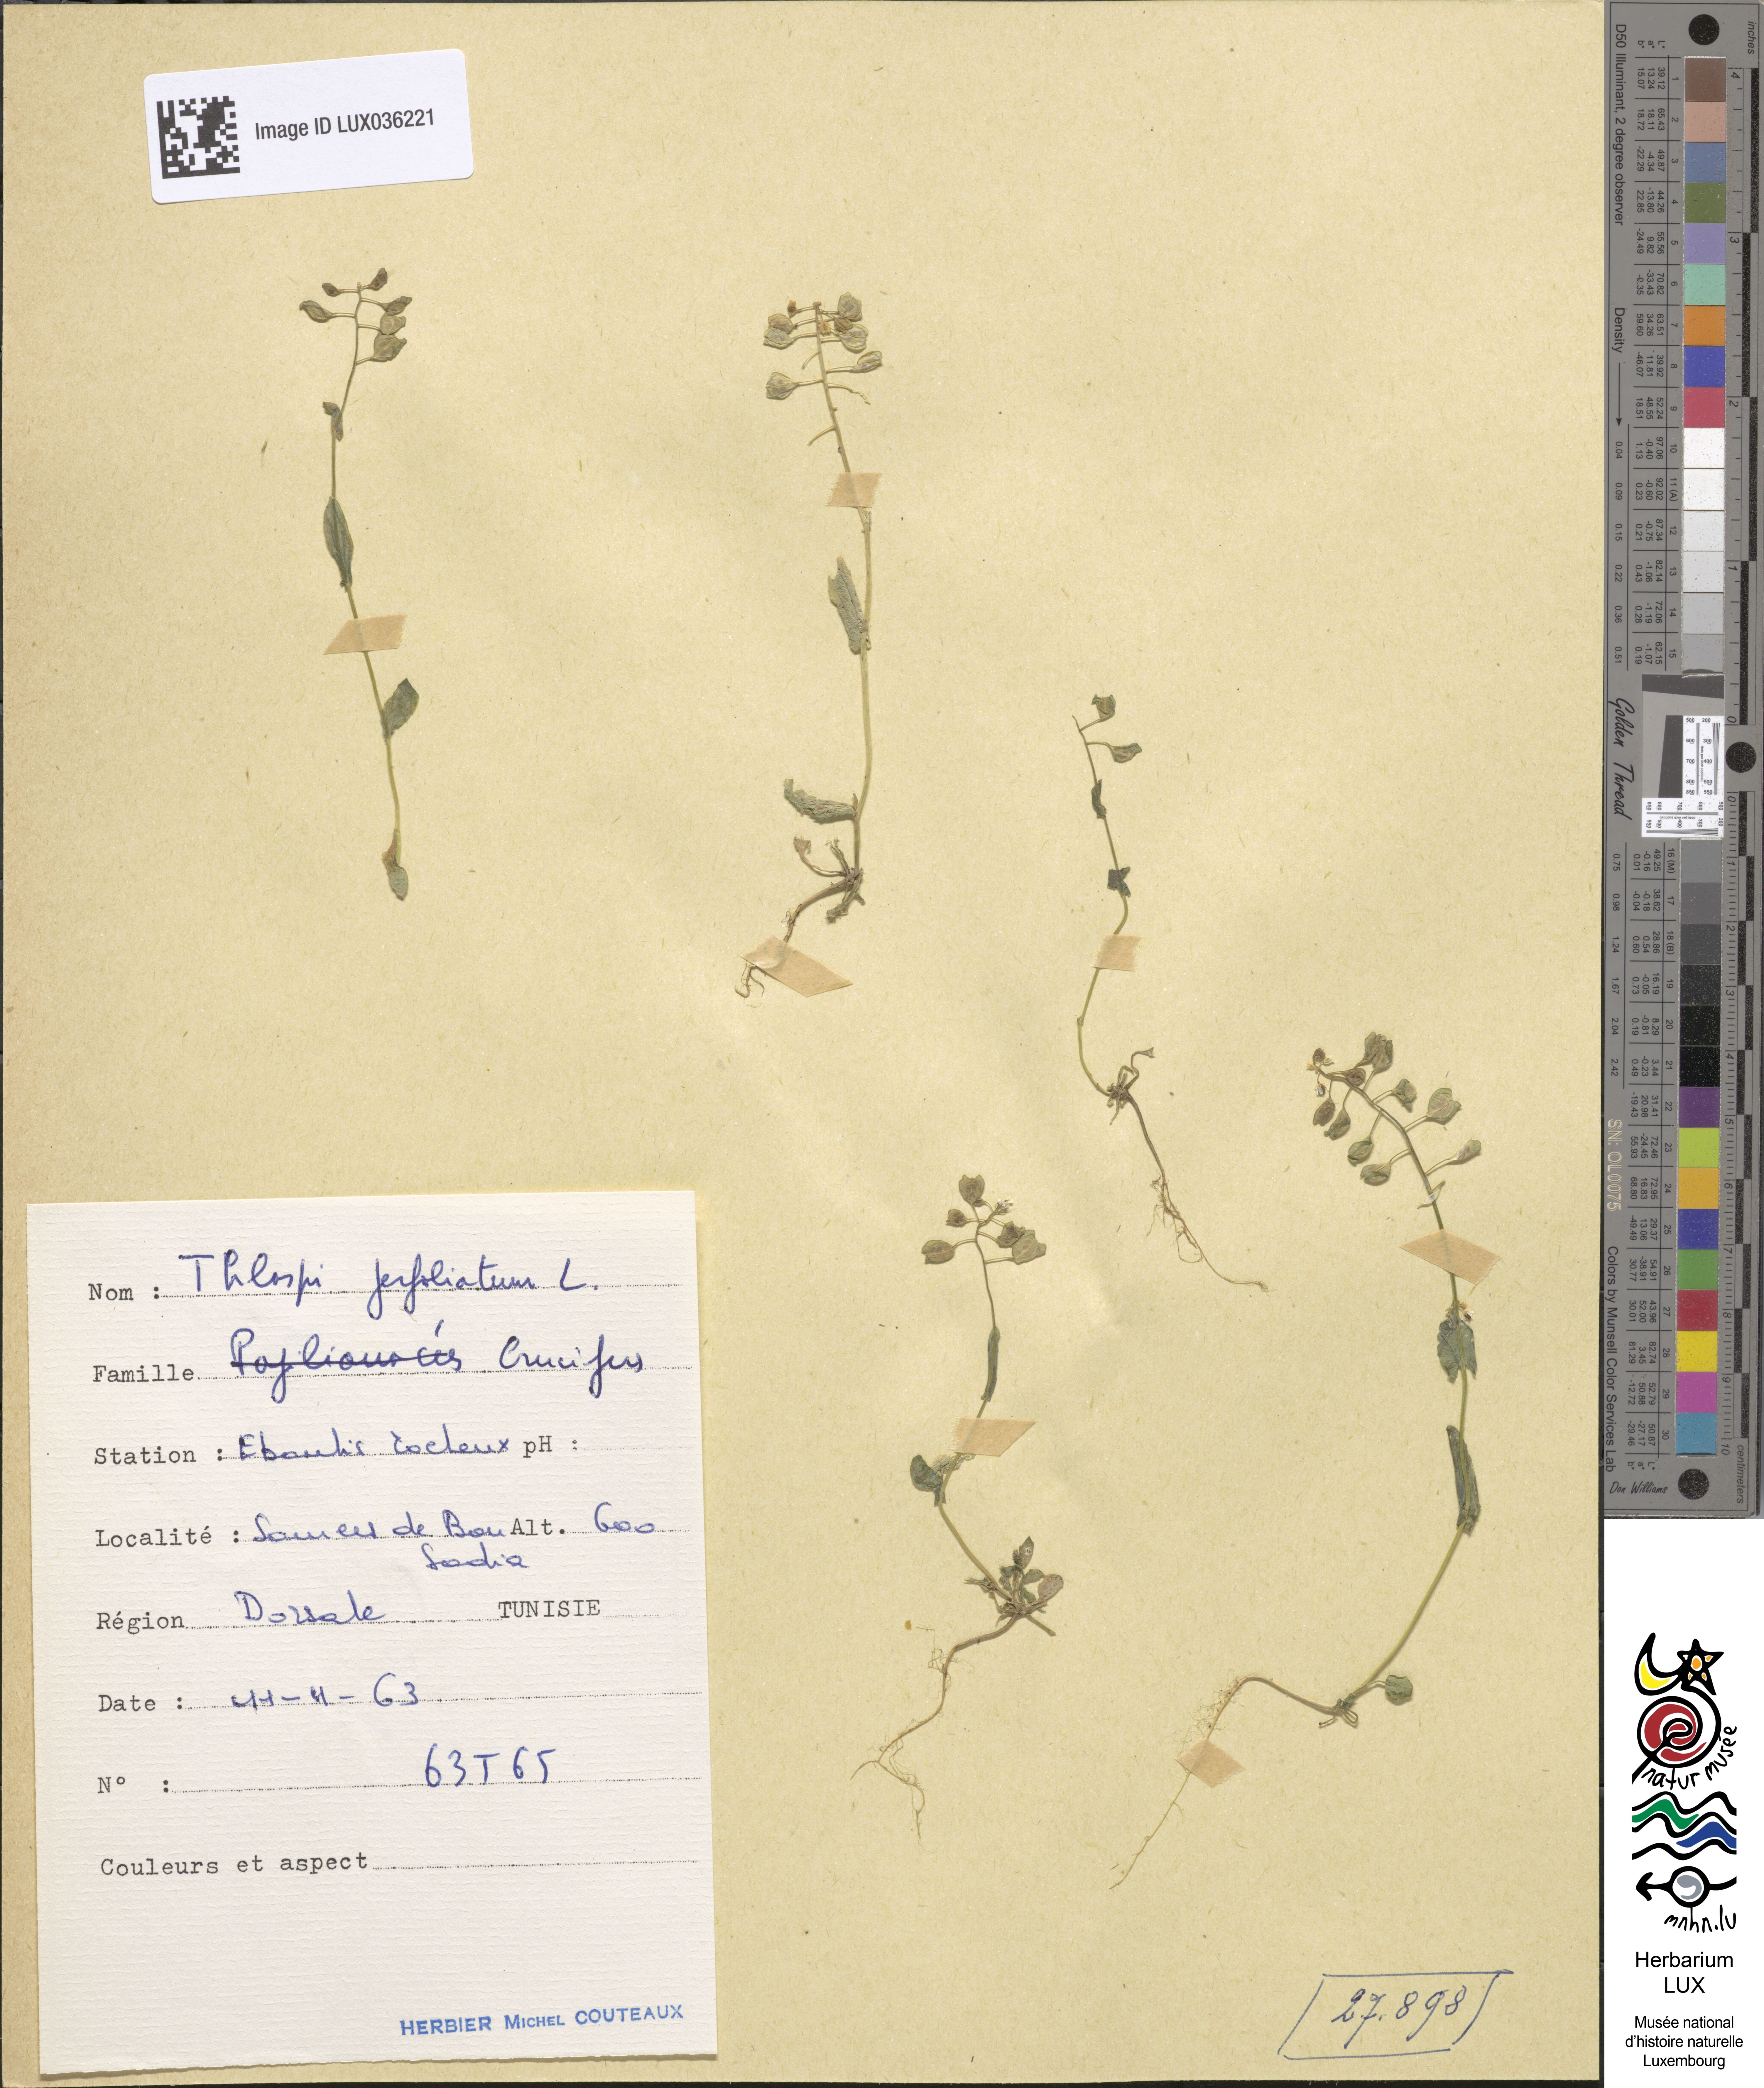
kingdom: Plantae
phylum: Tracheophyta
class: Magnoliopsida
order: Brassicales
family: Brassicaceae
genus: Noccaea
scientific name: Noccaea perfoliata
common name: Perfoliate pennycress
